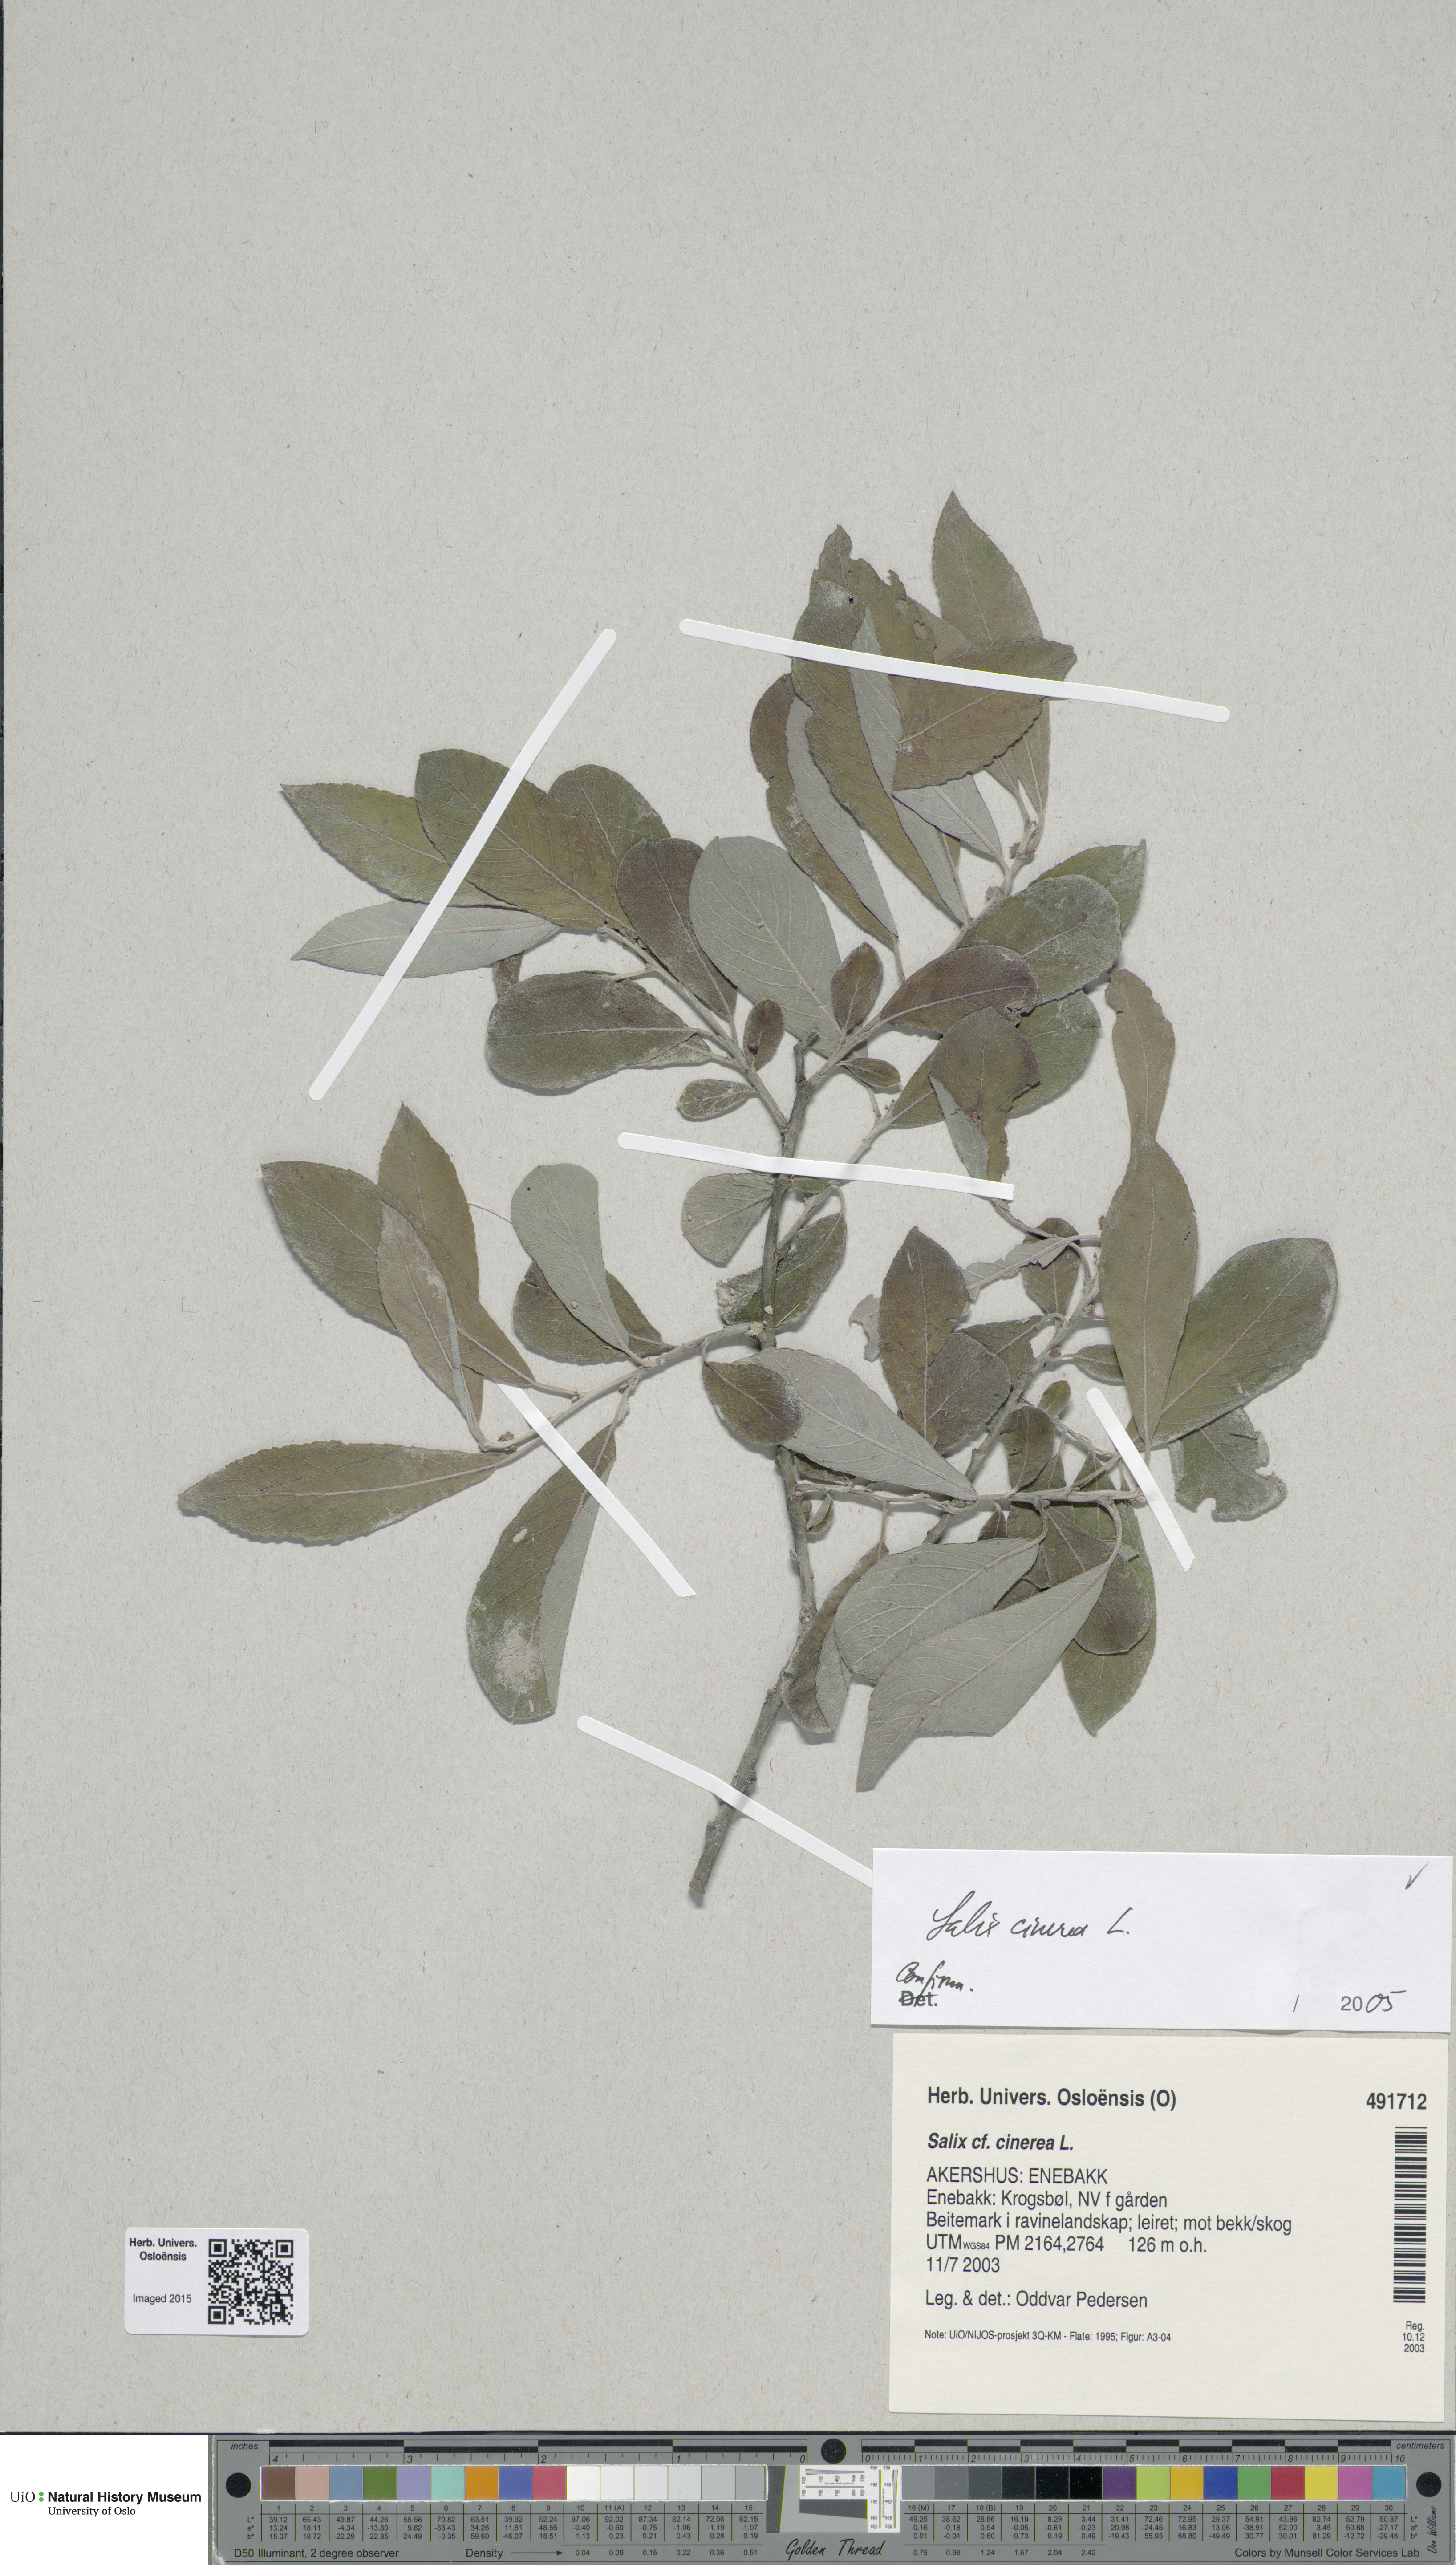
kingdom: Plantae
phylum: Tracheophyta
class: Magnoliopsida
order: Malpighiales
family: Salicaceae
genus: Salix
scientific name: Salix cinerea
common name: Common sallow
